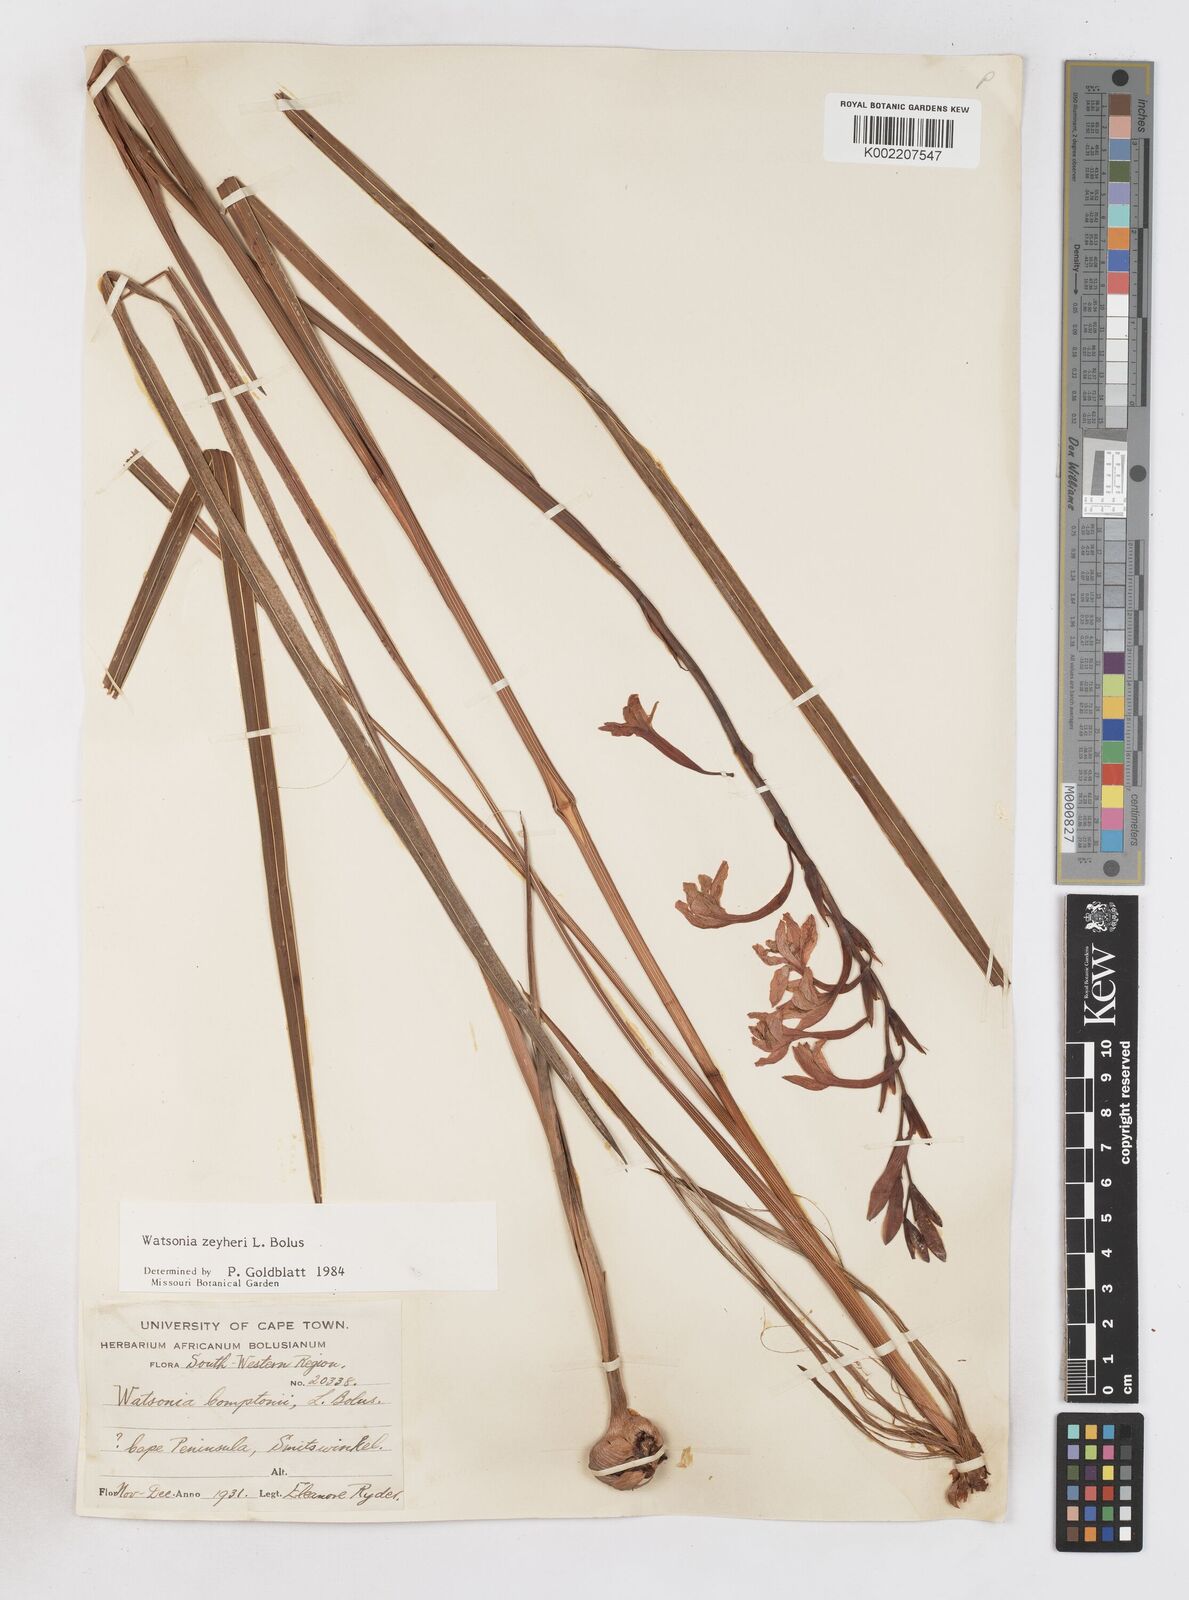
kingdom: Plantae
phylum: Tracheophyta
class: Liliopsida
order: Asparagales
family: Iridaceae
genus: Watsonia
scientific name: Watsonia zeyheri
